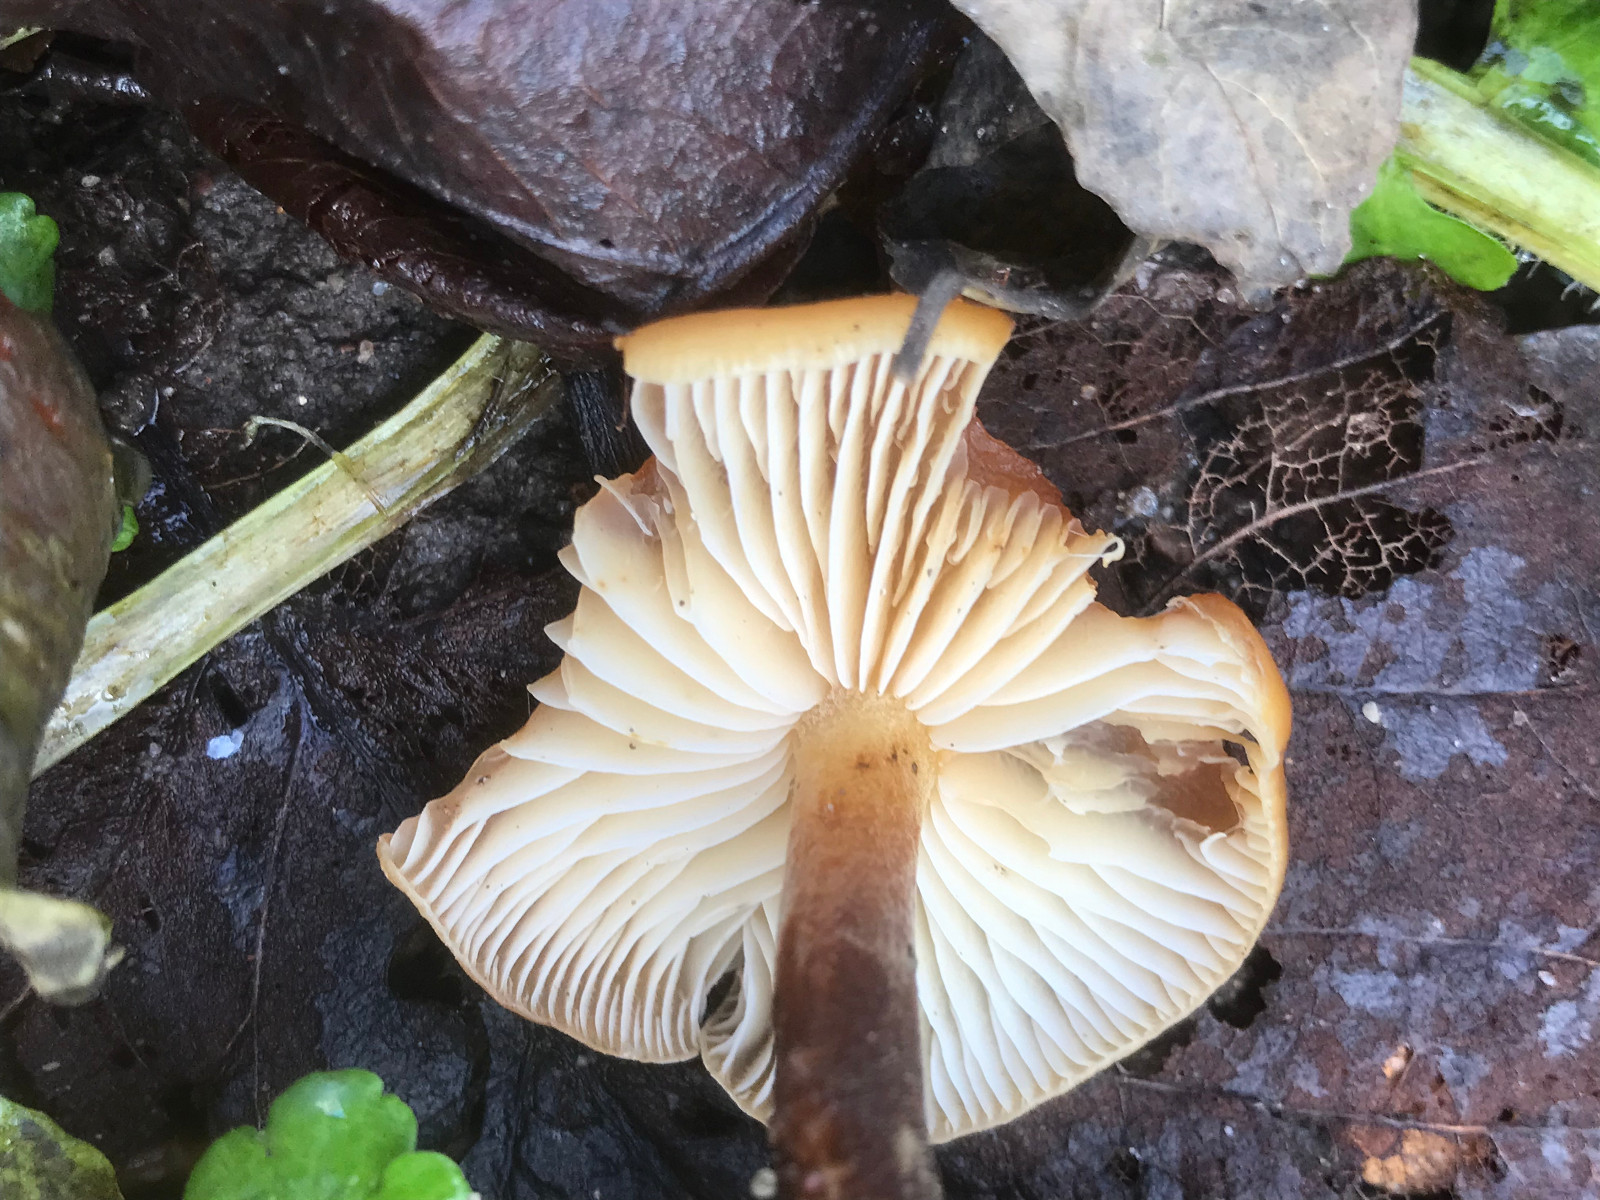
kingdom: Fungi
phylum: Basidiomycota
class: Agaricomycetes
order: Agaricales
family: Physalacriaceae
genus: Flammulina
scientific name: Flammulina
